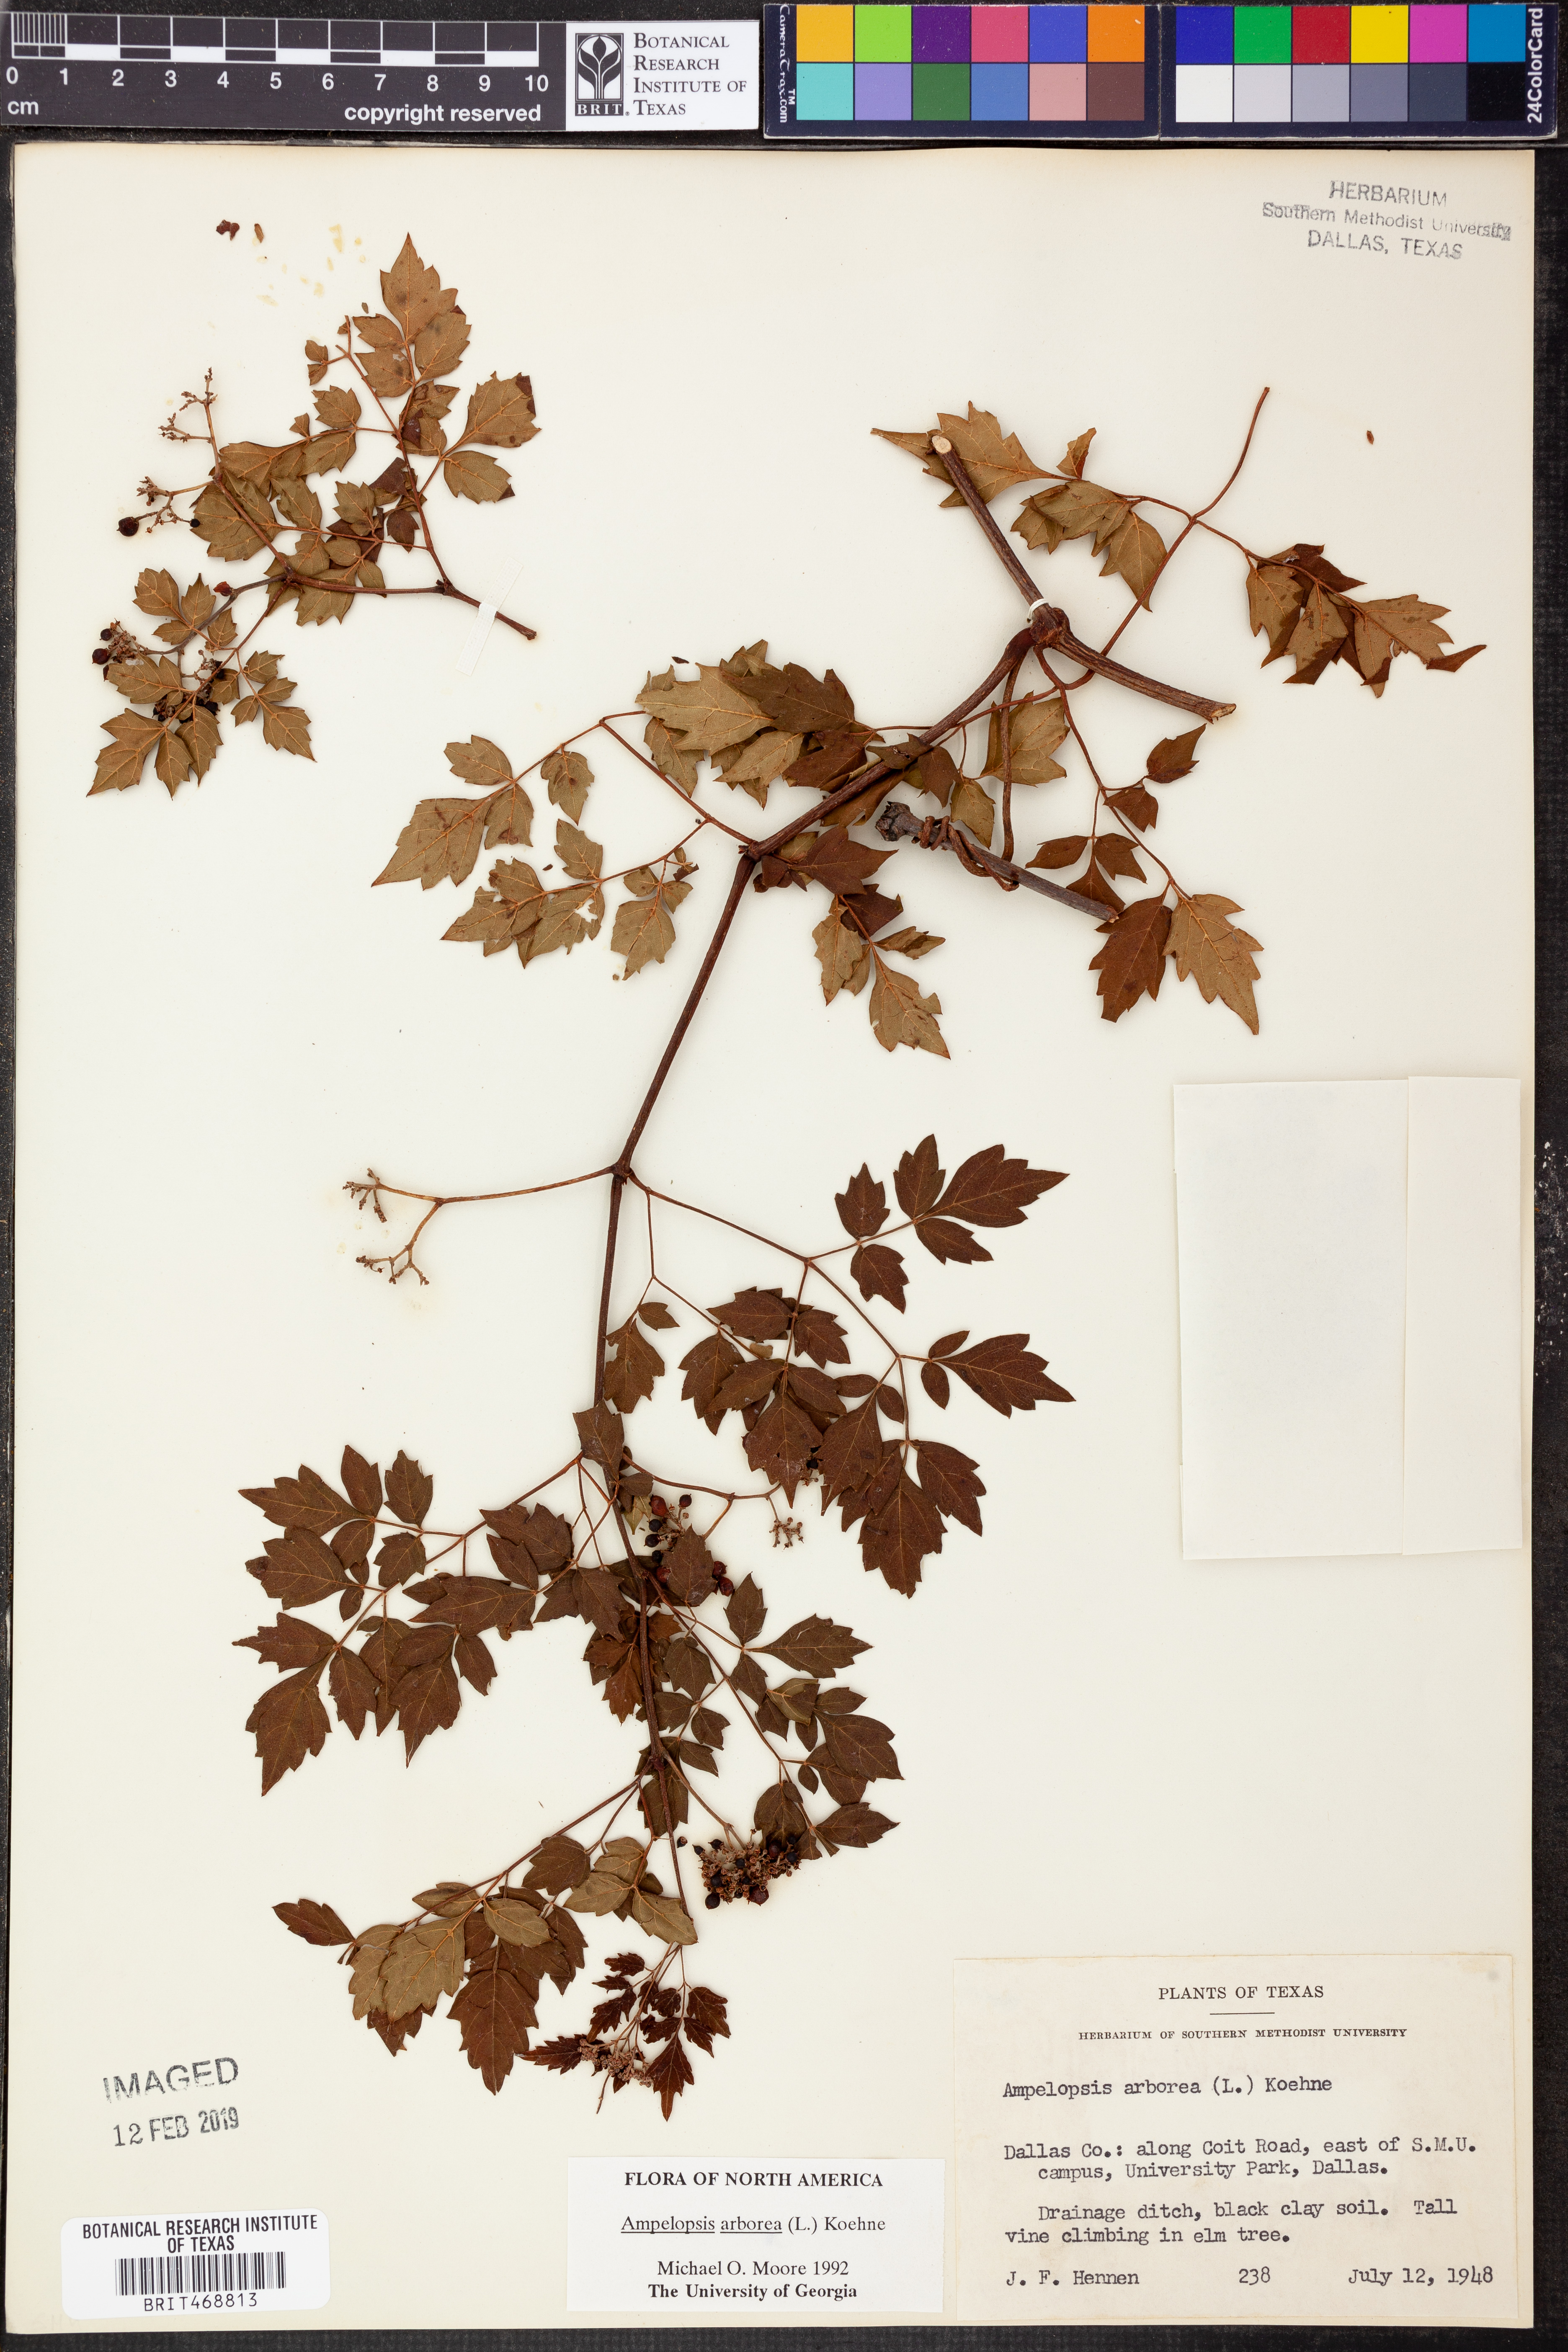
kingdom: Plantae
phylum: Tracheophyta
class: Magnoliopsida
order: Vitales
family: Vitaceae
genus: Nekemias
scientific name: Nekemias arborea
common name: Peppervine
